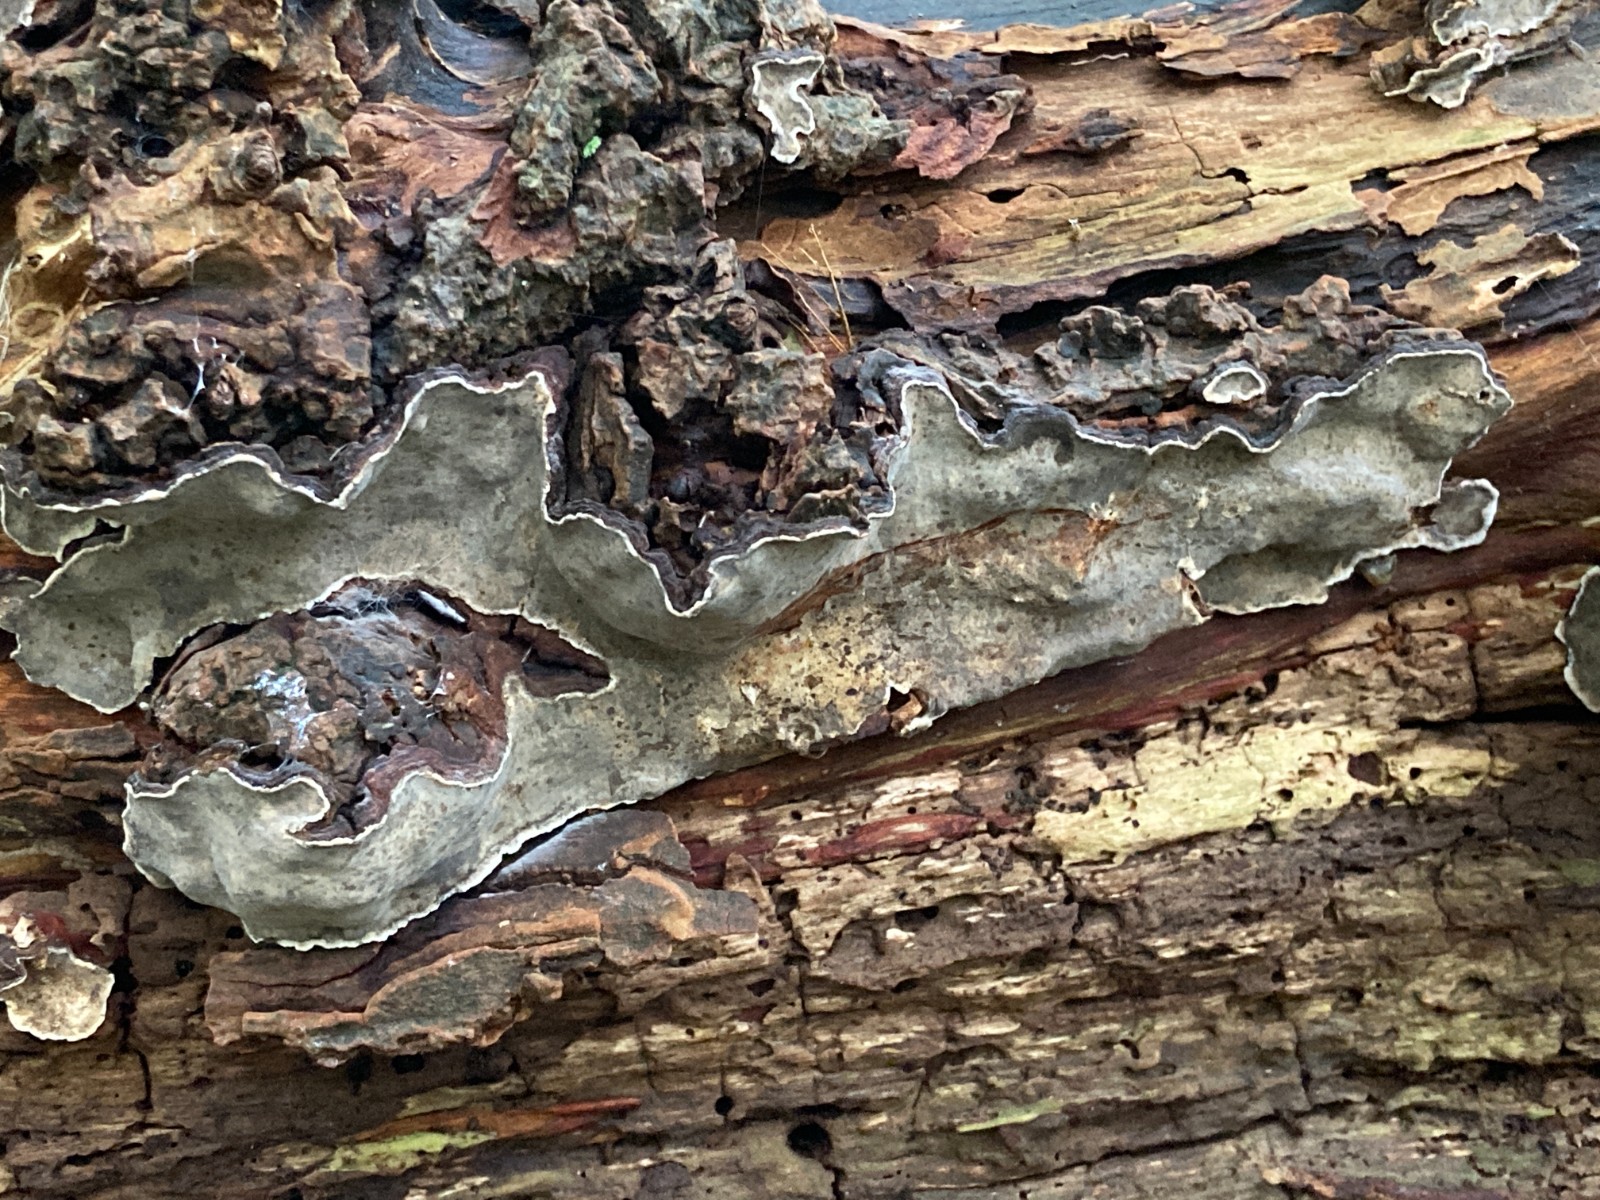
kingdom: Fungi
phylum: Basidiomycota
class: Agaricomycetes
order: Russulales
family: Stereaceae
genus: Stereum
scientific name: Stereum rugosum
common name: rynket lædersvamp
